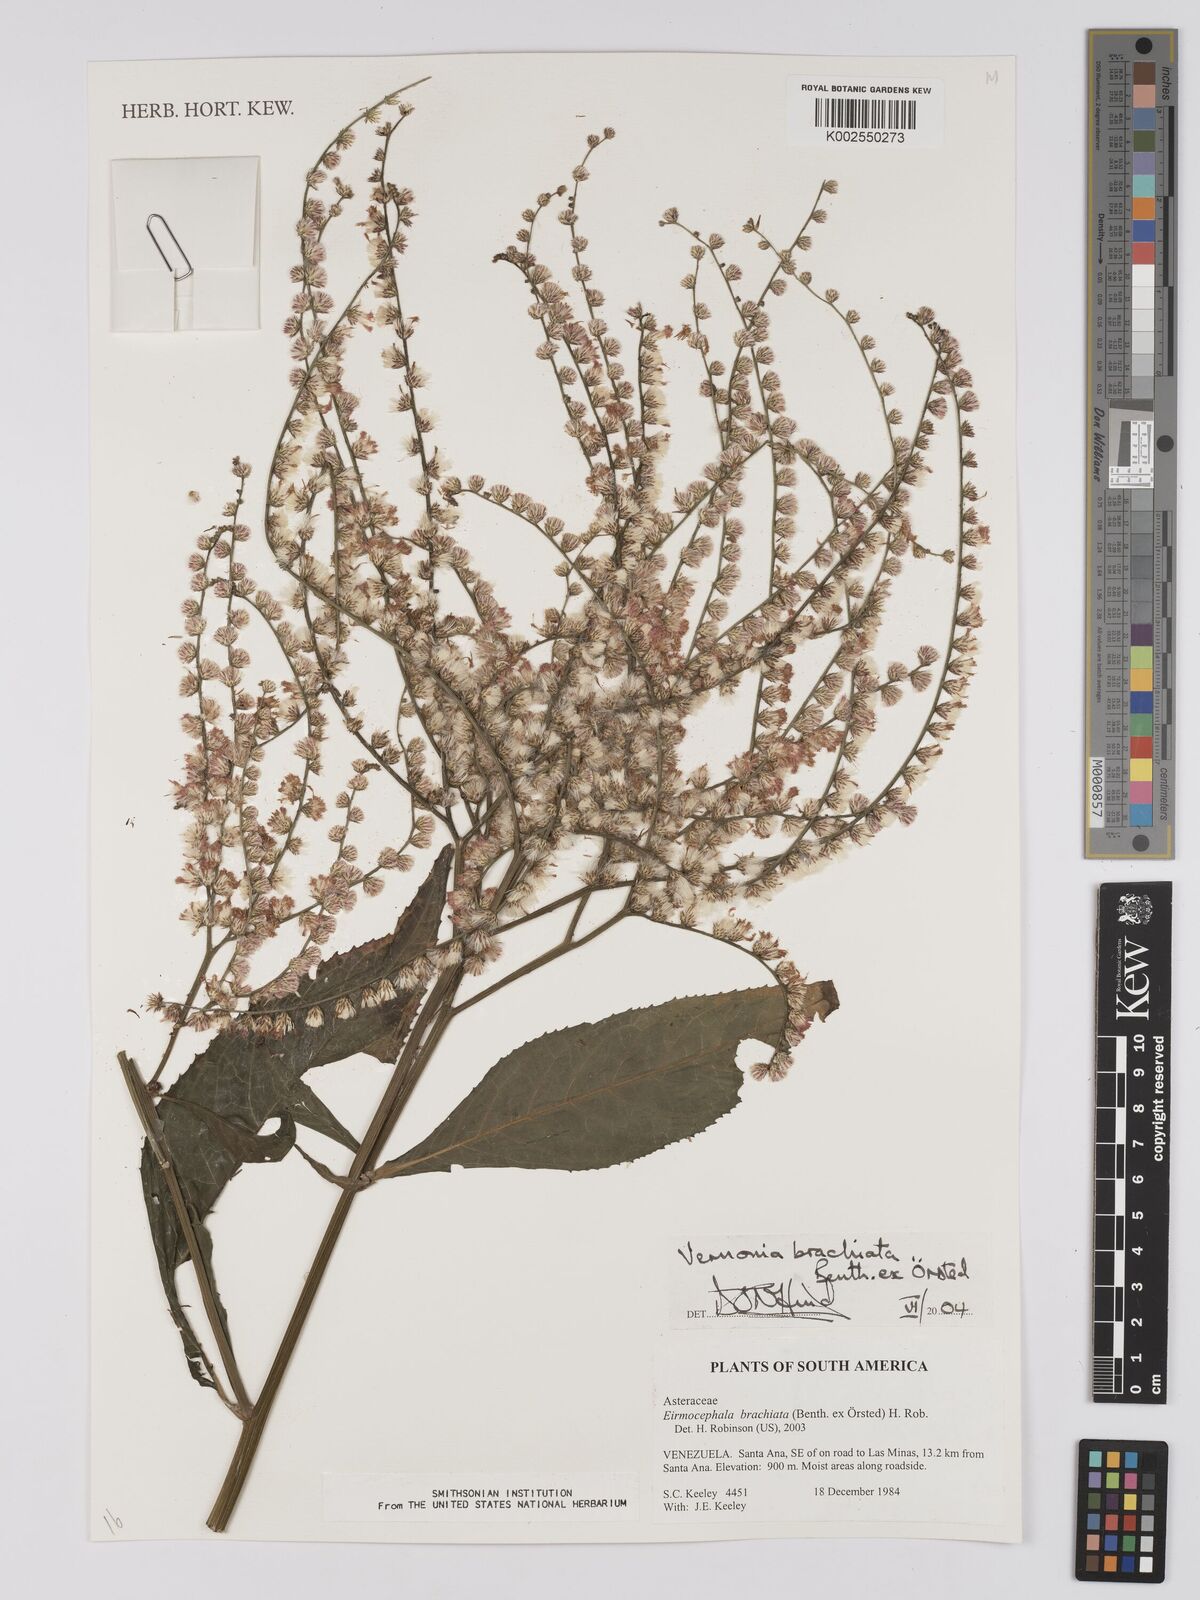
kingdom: Plantae
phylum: Tracheophyta
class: Magnoliopsida
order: Asterales
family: Asteraceae
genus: Eirmocephala
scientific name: Eirmocephala brachiata
